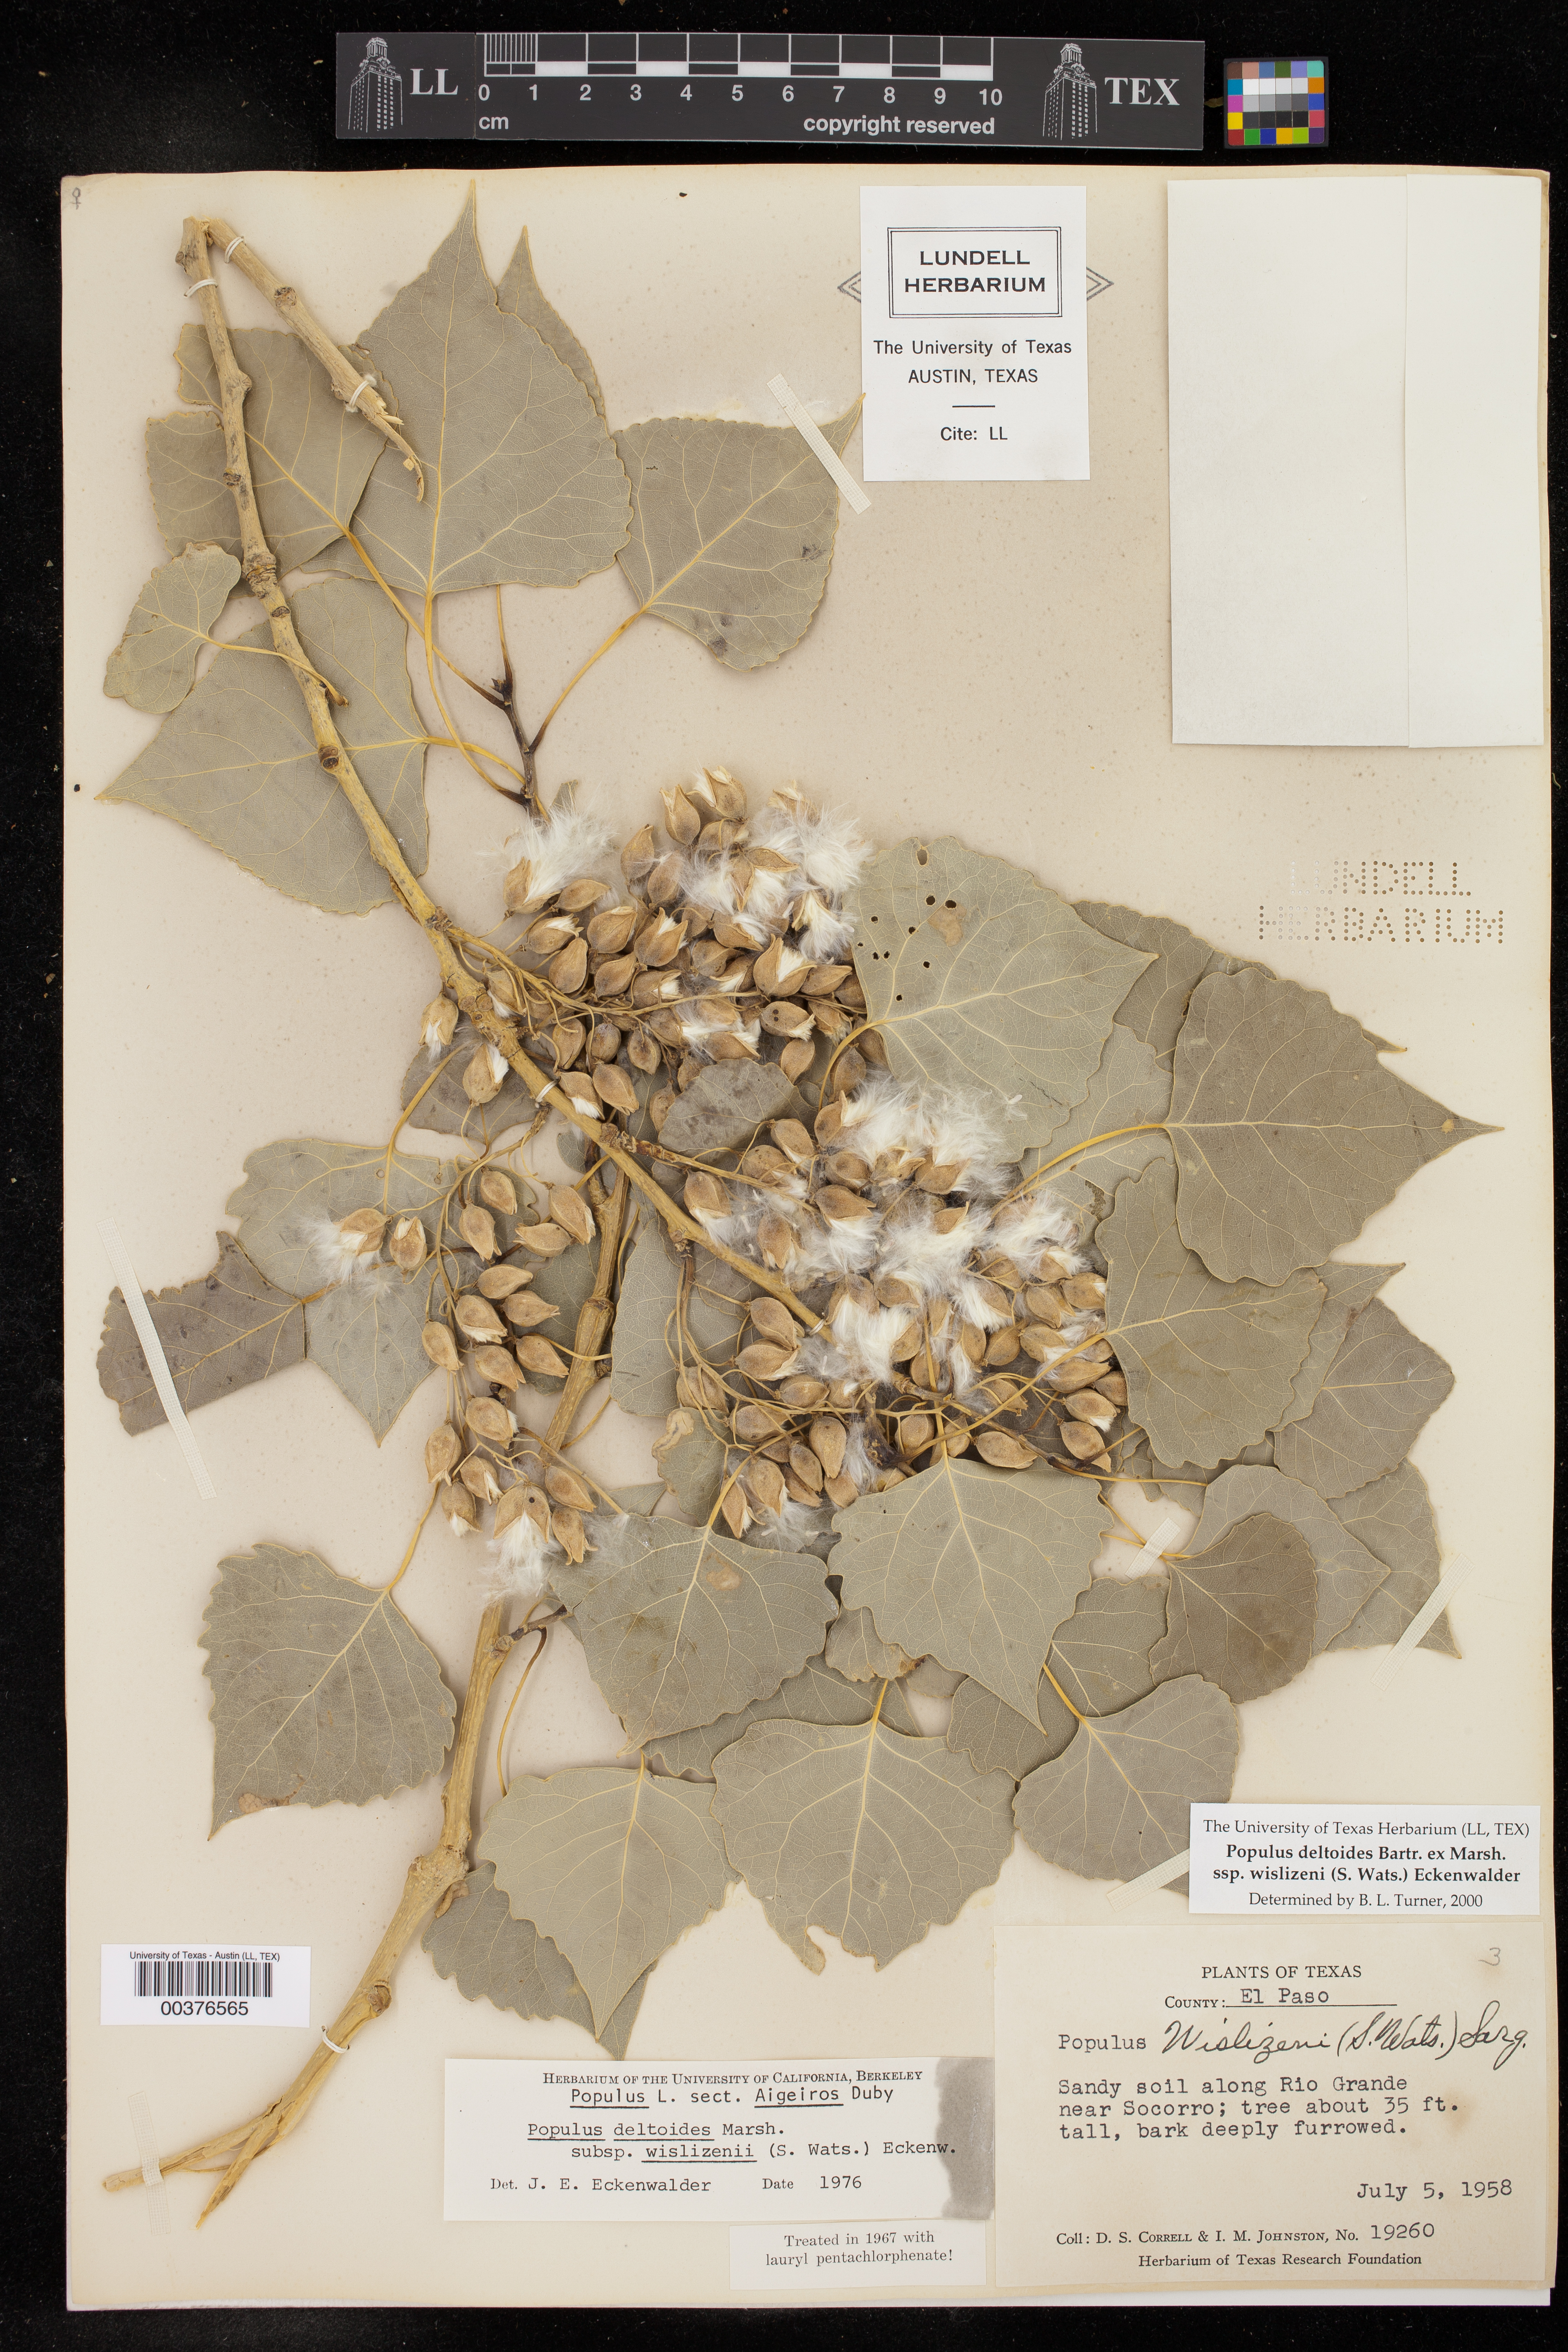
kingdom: Plantae
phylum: Tracheophyta
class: Magnoliopsida
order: Malpighiales
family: Salicaceae
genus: Populus
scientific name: Populus deltoides
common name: Eastern cottonwood
